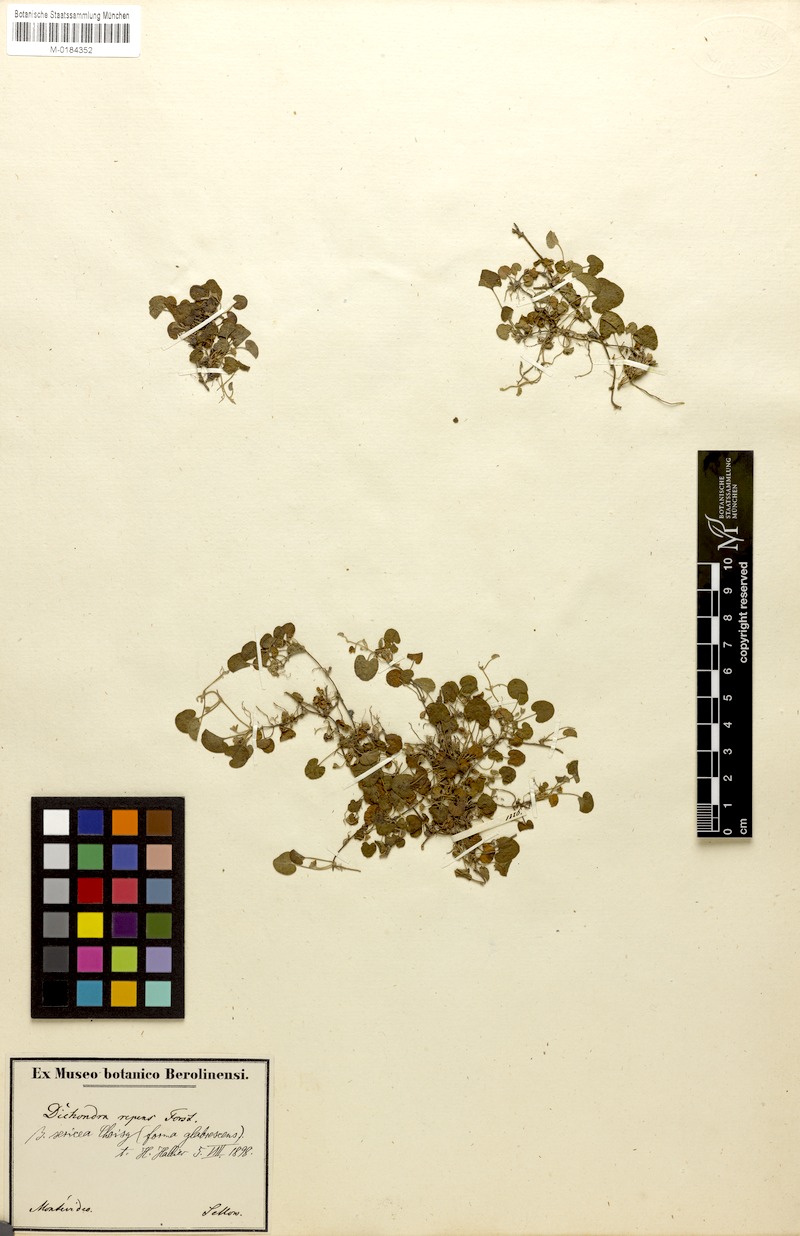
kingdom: Plantae
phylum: Tracheophyta
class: Magnoliopsida
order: Solanales
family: Convolvulaceae
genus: Dichondra
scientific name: Dichondra sericea
